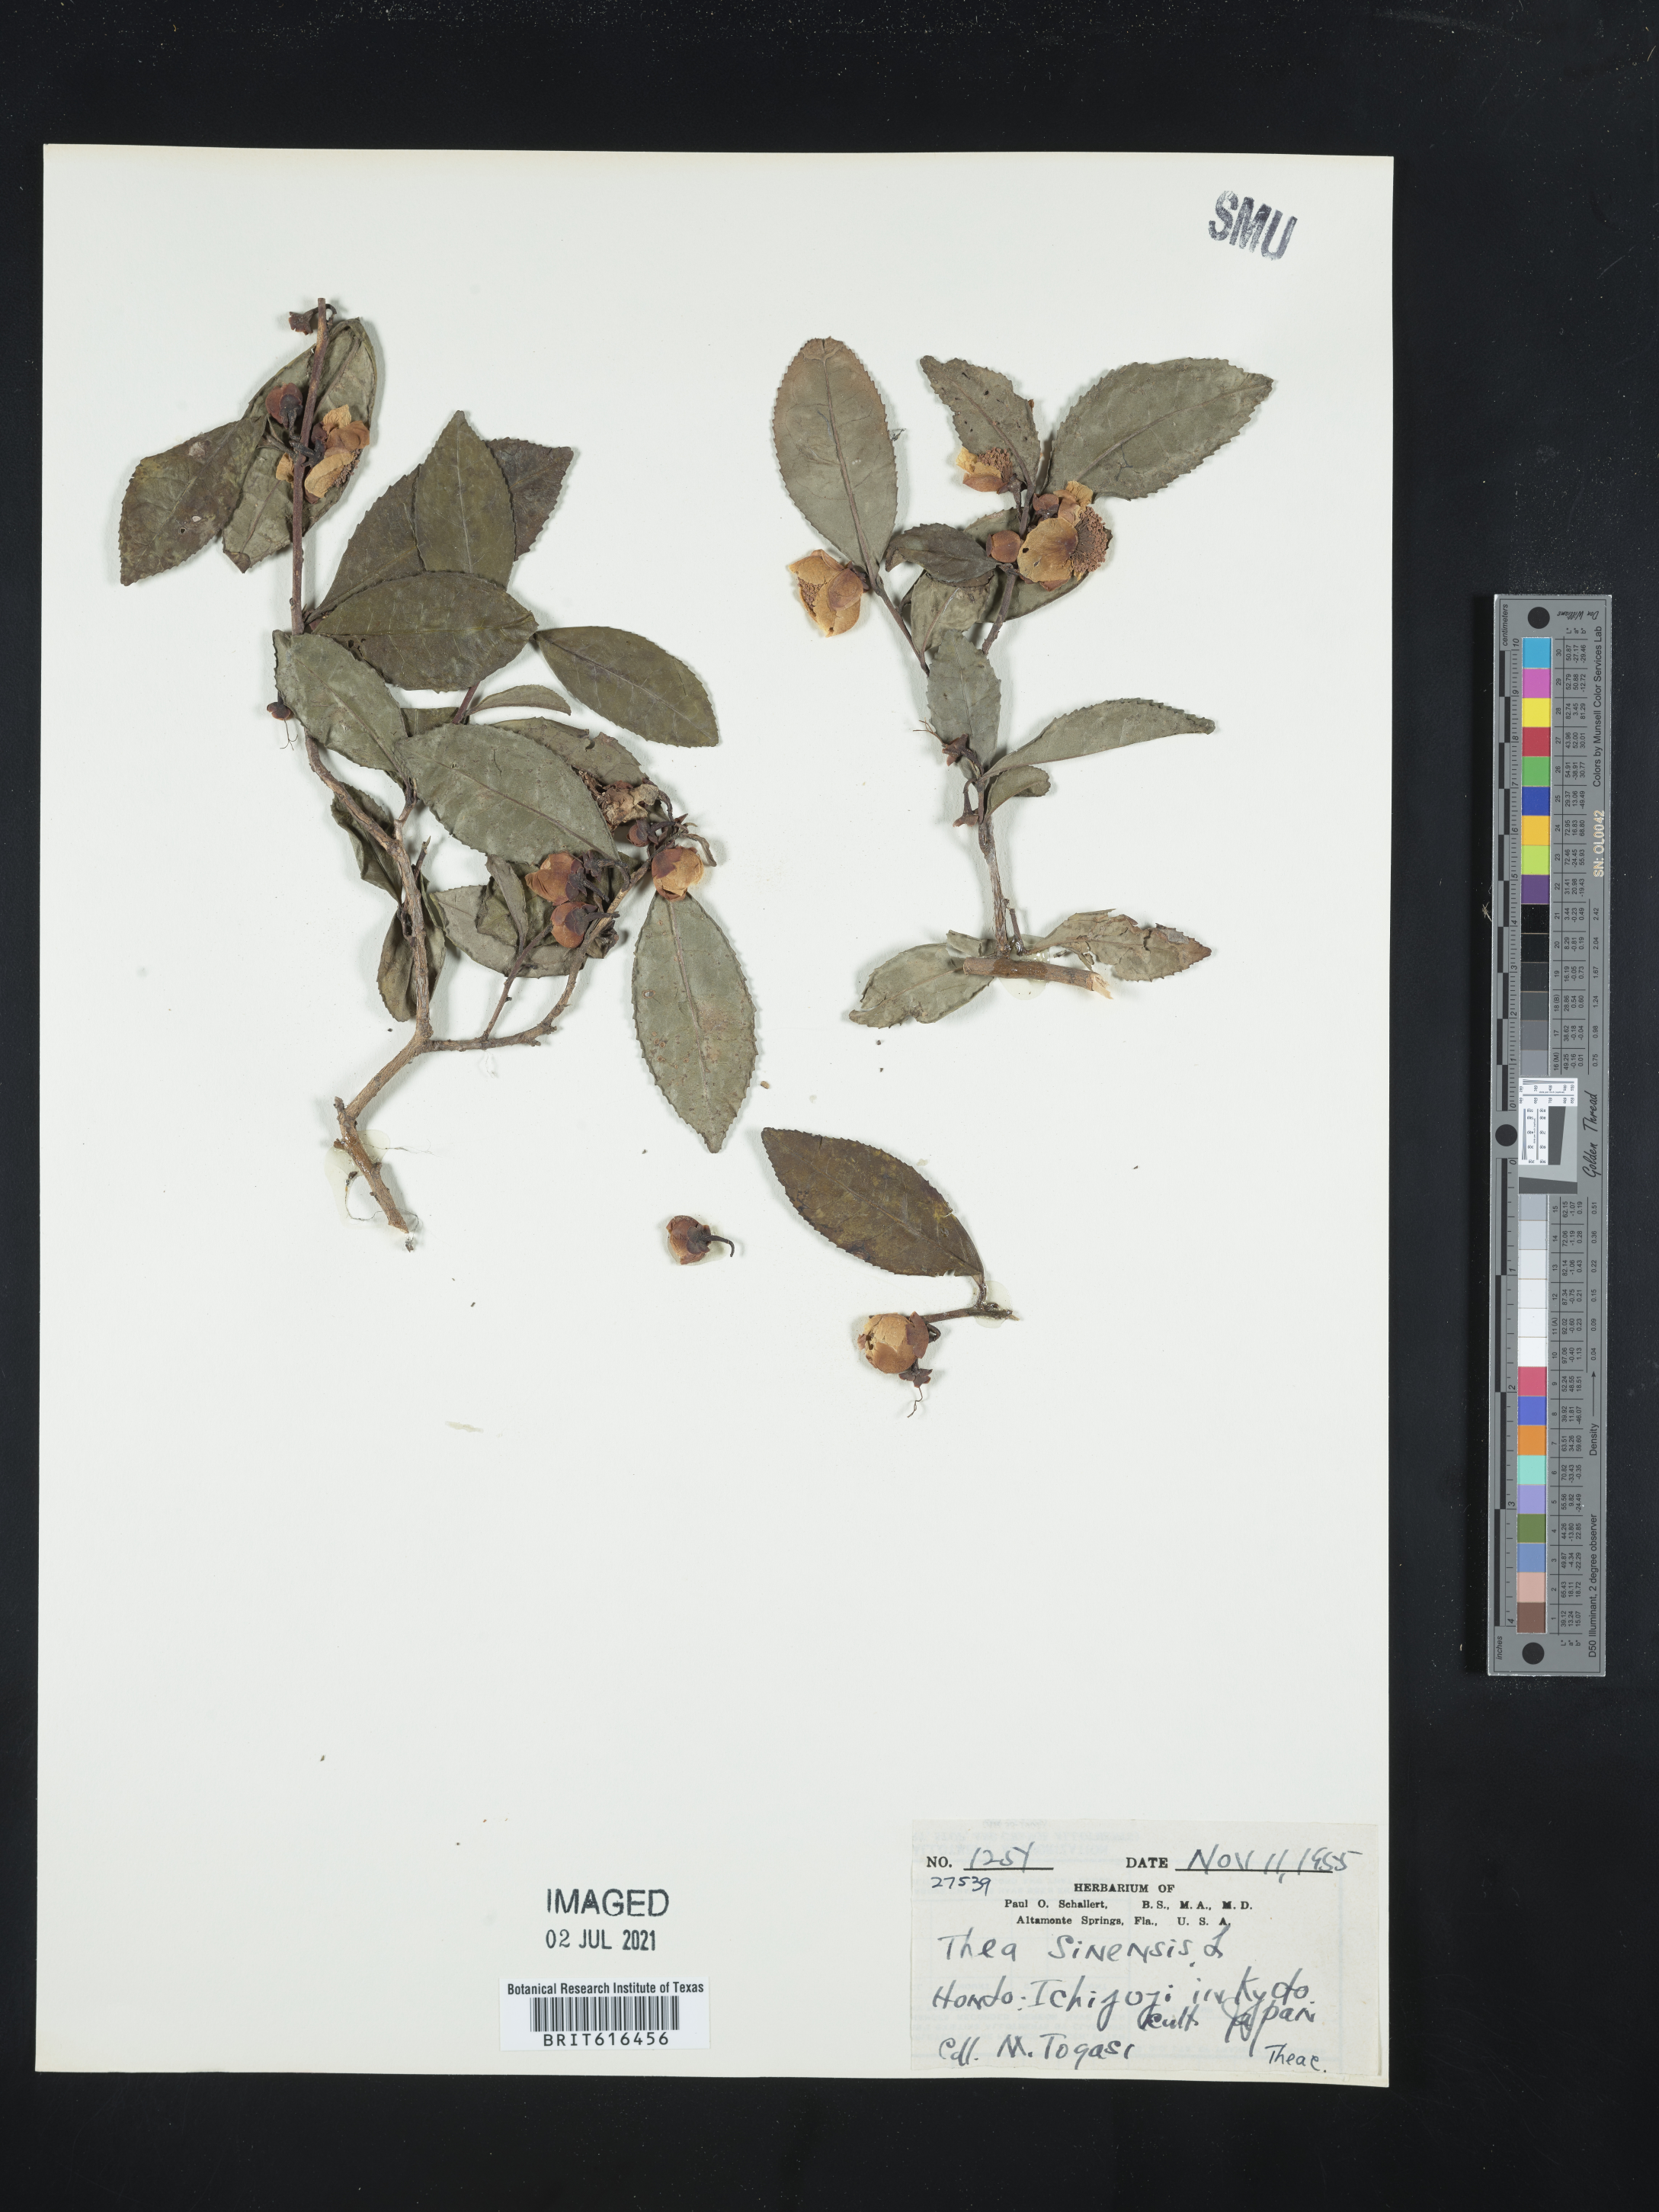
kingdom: Plantae
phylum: Tracheophyta
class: Magnoliopsida
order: Ericales
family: Theaceae
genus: Camellia
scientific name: Camellia sinensis
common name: Tea
